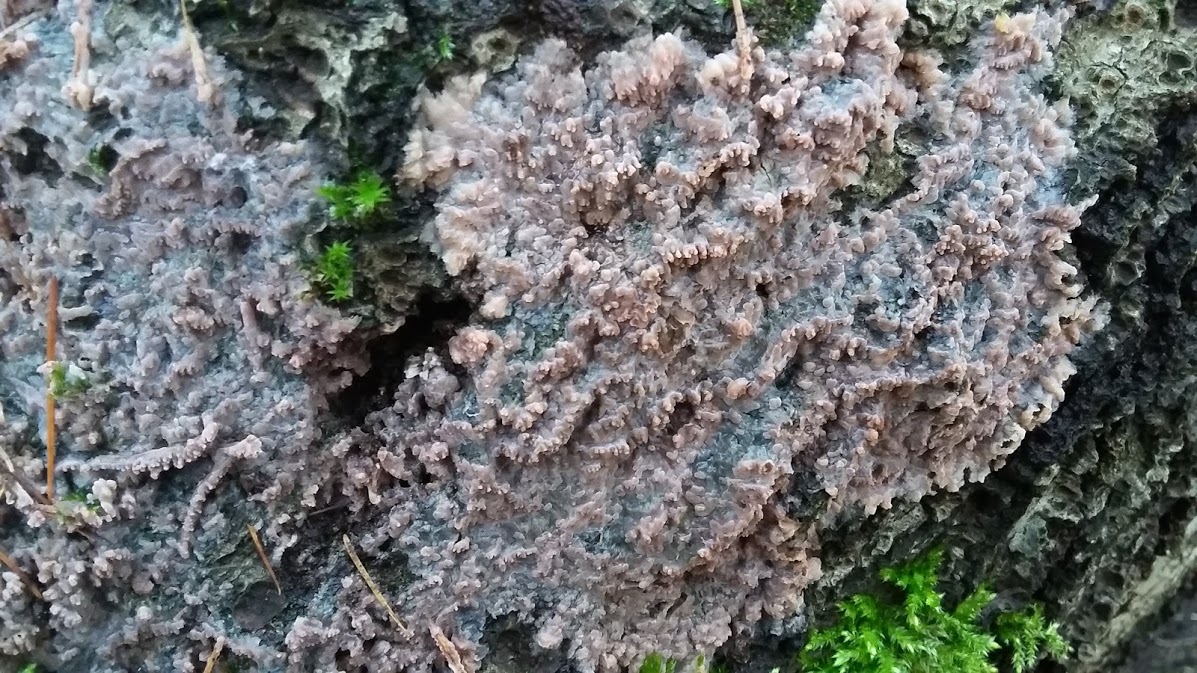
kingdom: Fungi
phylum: Basidiomycota
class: Agaricomycetes
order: Polyporales
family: Meruliaceae
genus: Phlebia
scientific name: Phlebia radiata
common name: stråle-åresvamp
